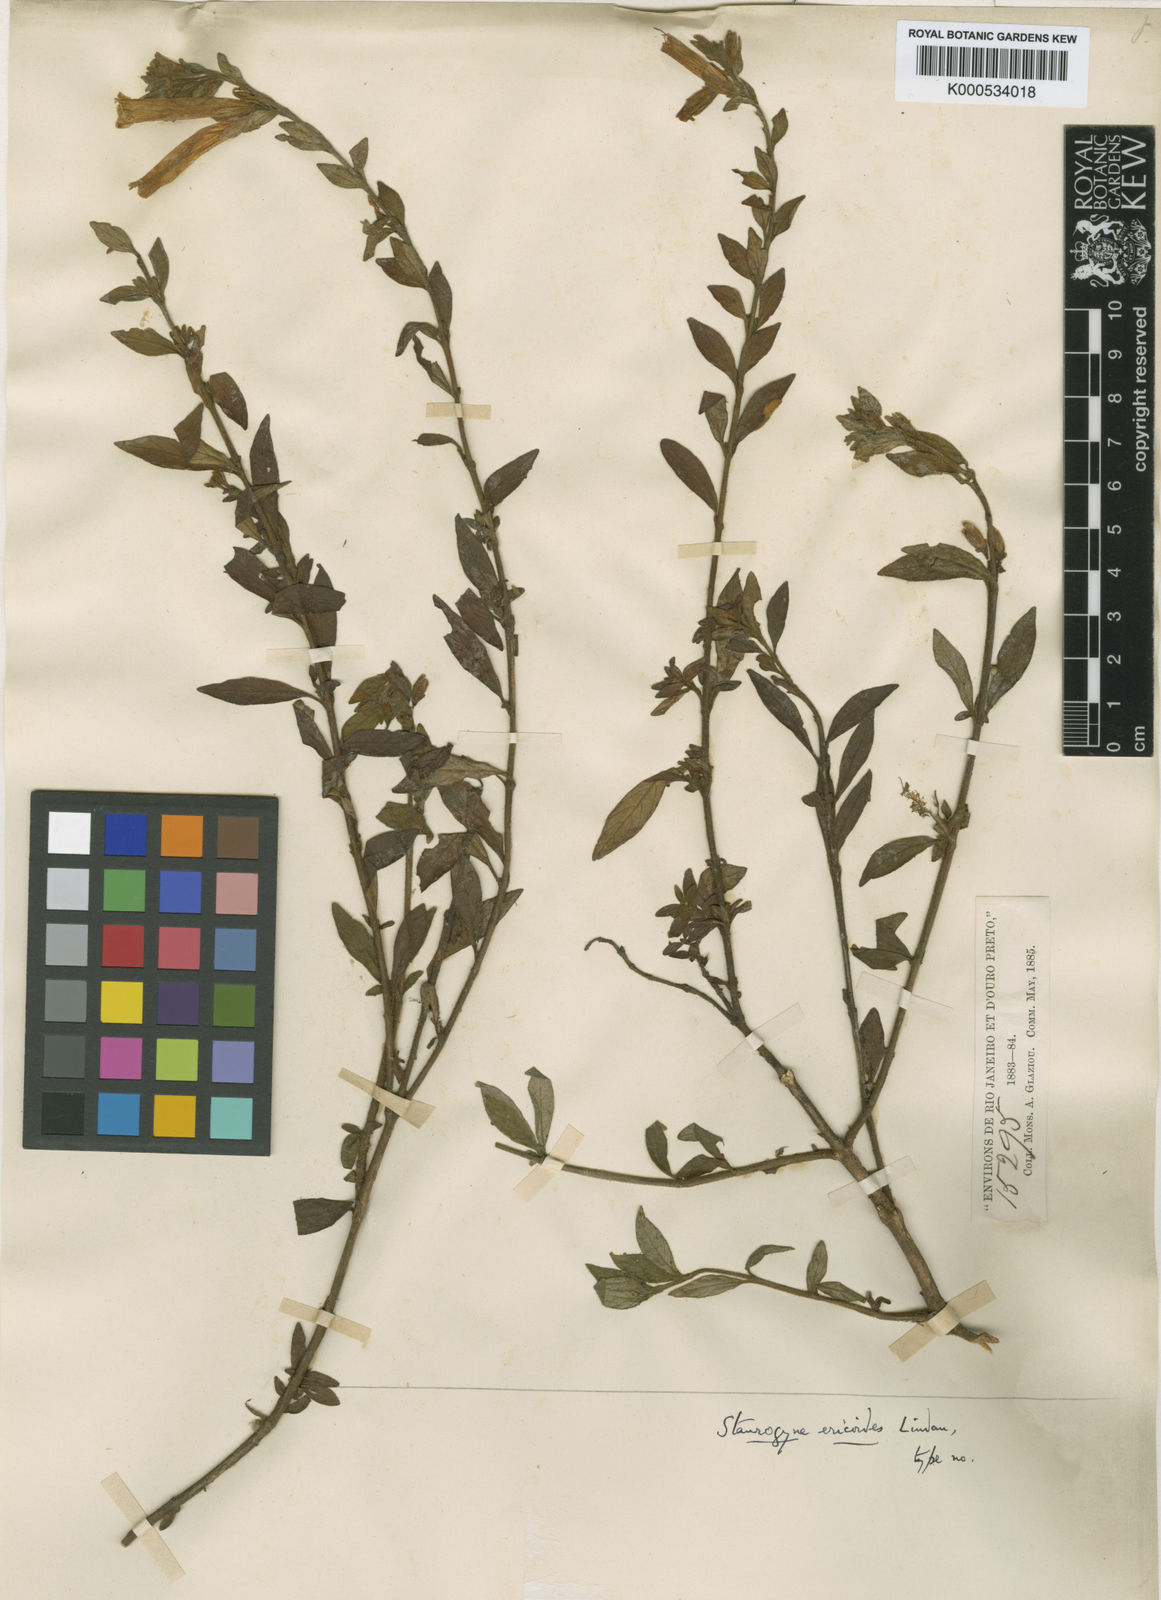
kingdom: Plantae
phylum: Tracheophyta
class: Magnoliopsida
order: Lamiales
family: Acanthaceae
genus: Staurogyne
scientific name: Staurogyne ericoides
